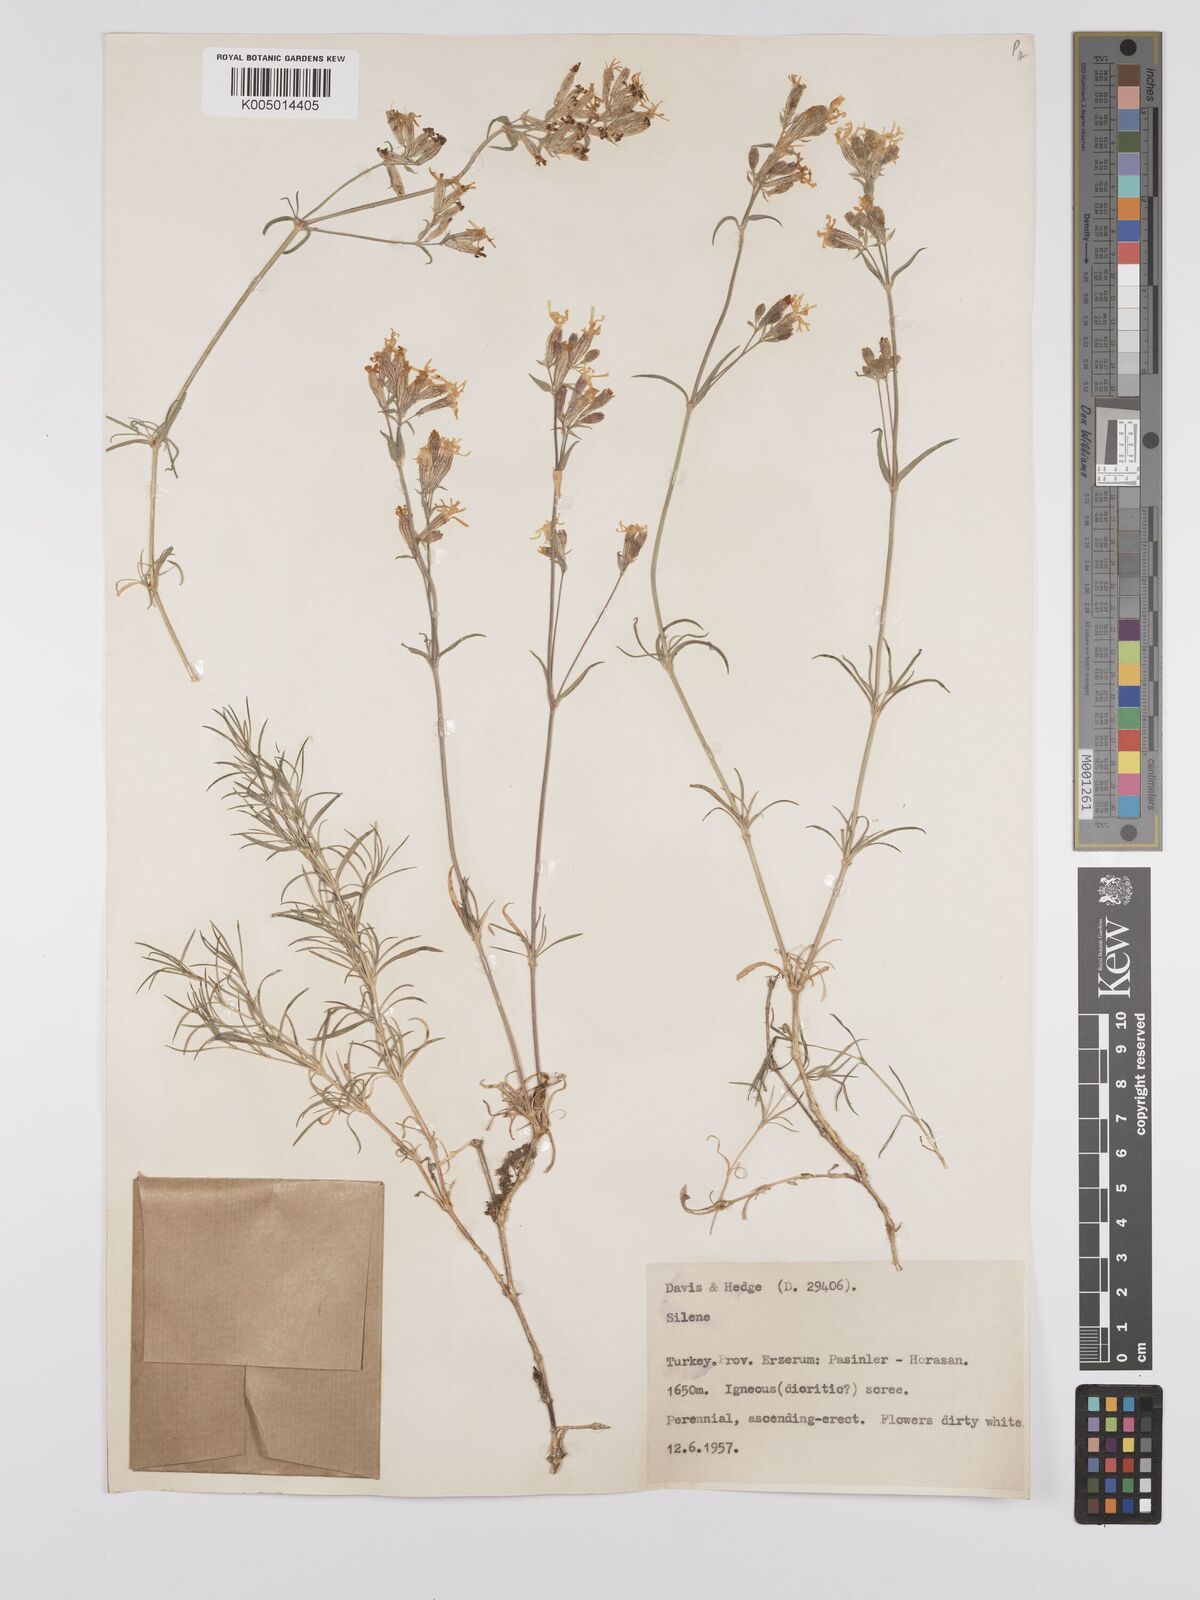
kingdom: Plantae
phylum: Tracheophyta
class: Magnoliopsida
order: Caryophyllales
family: Caryophyllaceae
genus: Silene
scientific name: Silene
